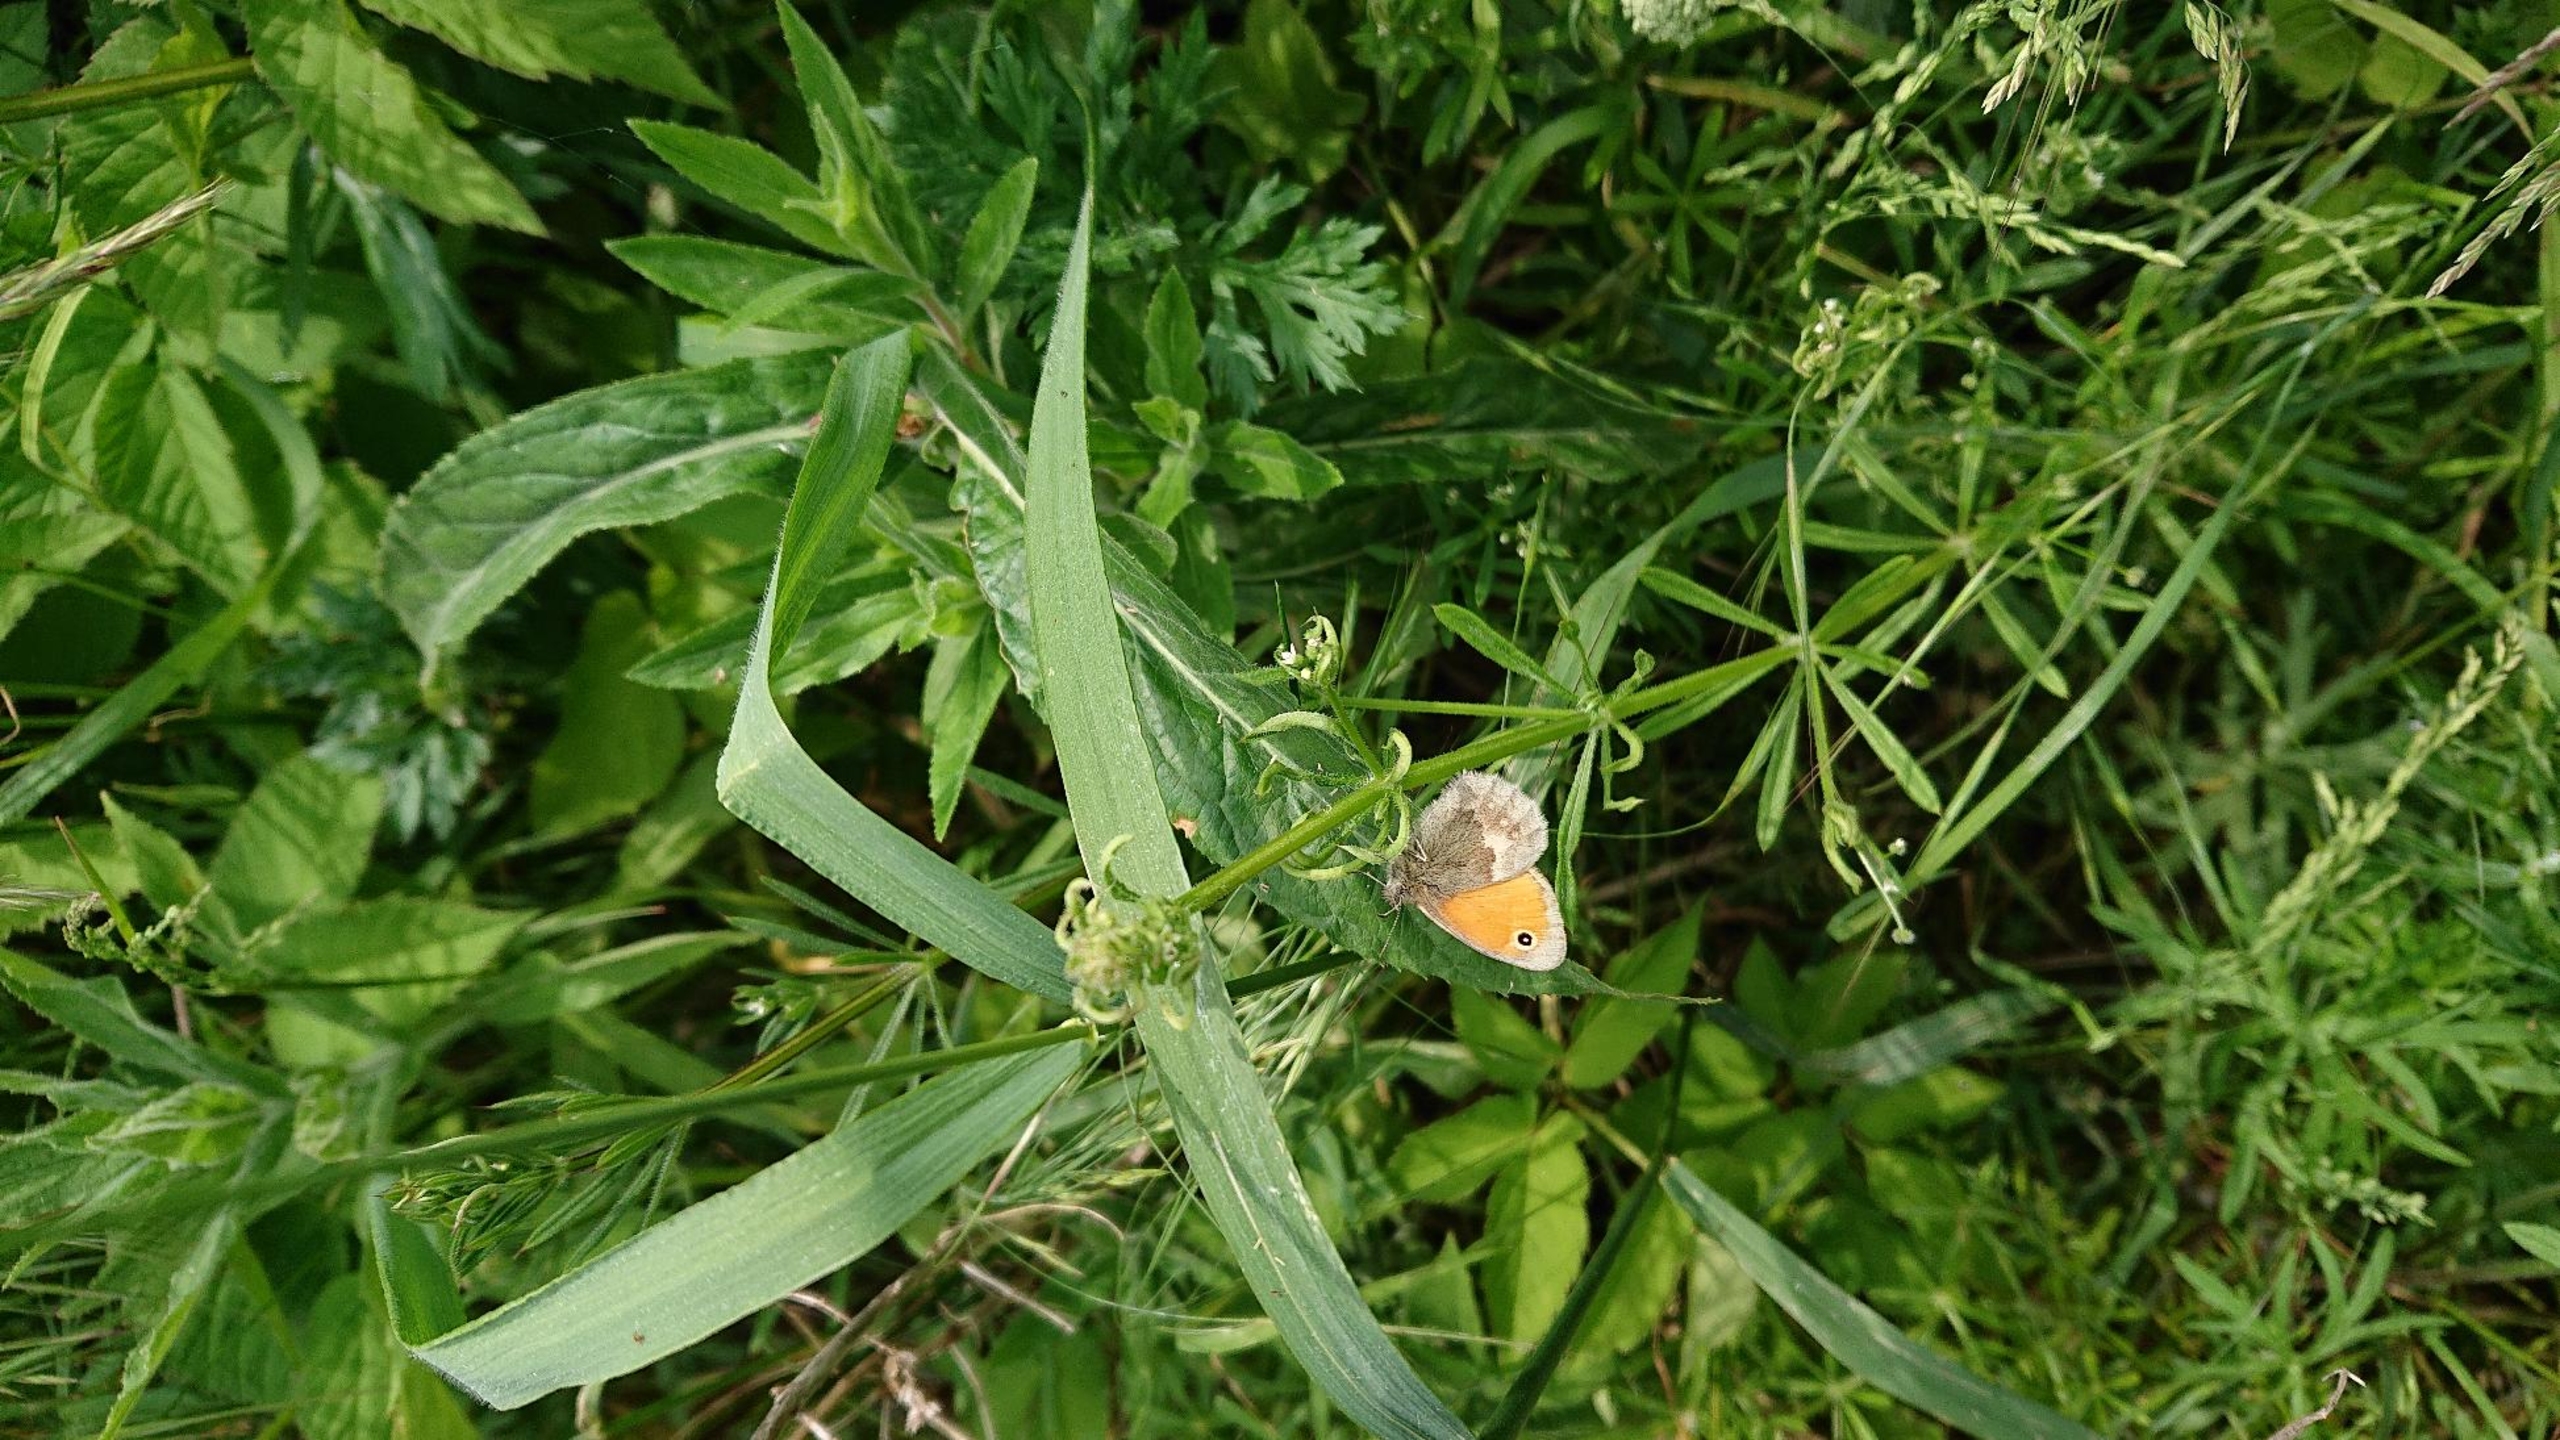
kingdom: Animalia
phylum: Arthropoda
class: Insecta
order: Lepidoptera
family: Nymphalidae
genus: Coenonympha
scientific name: Coenonympha pamphilus
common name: Okkergul randøje
